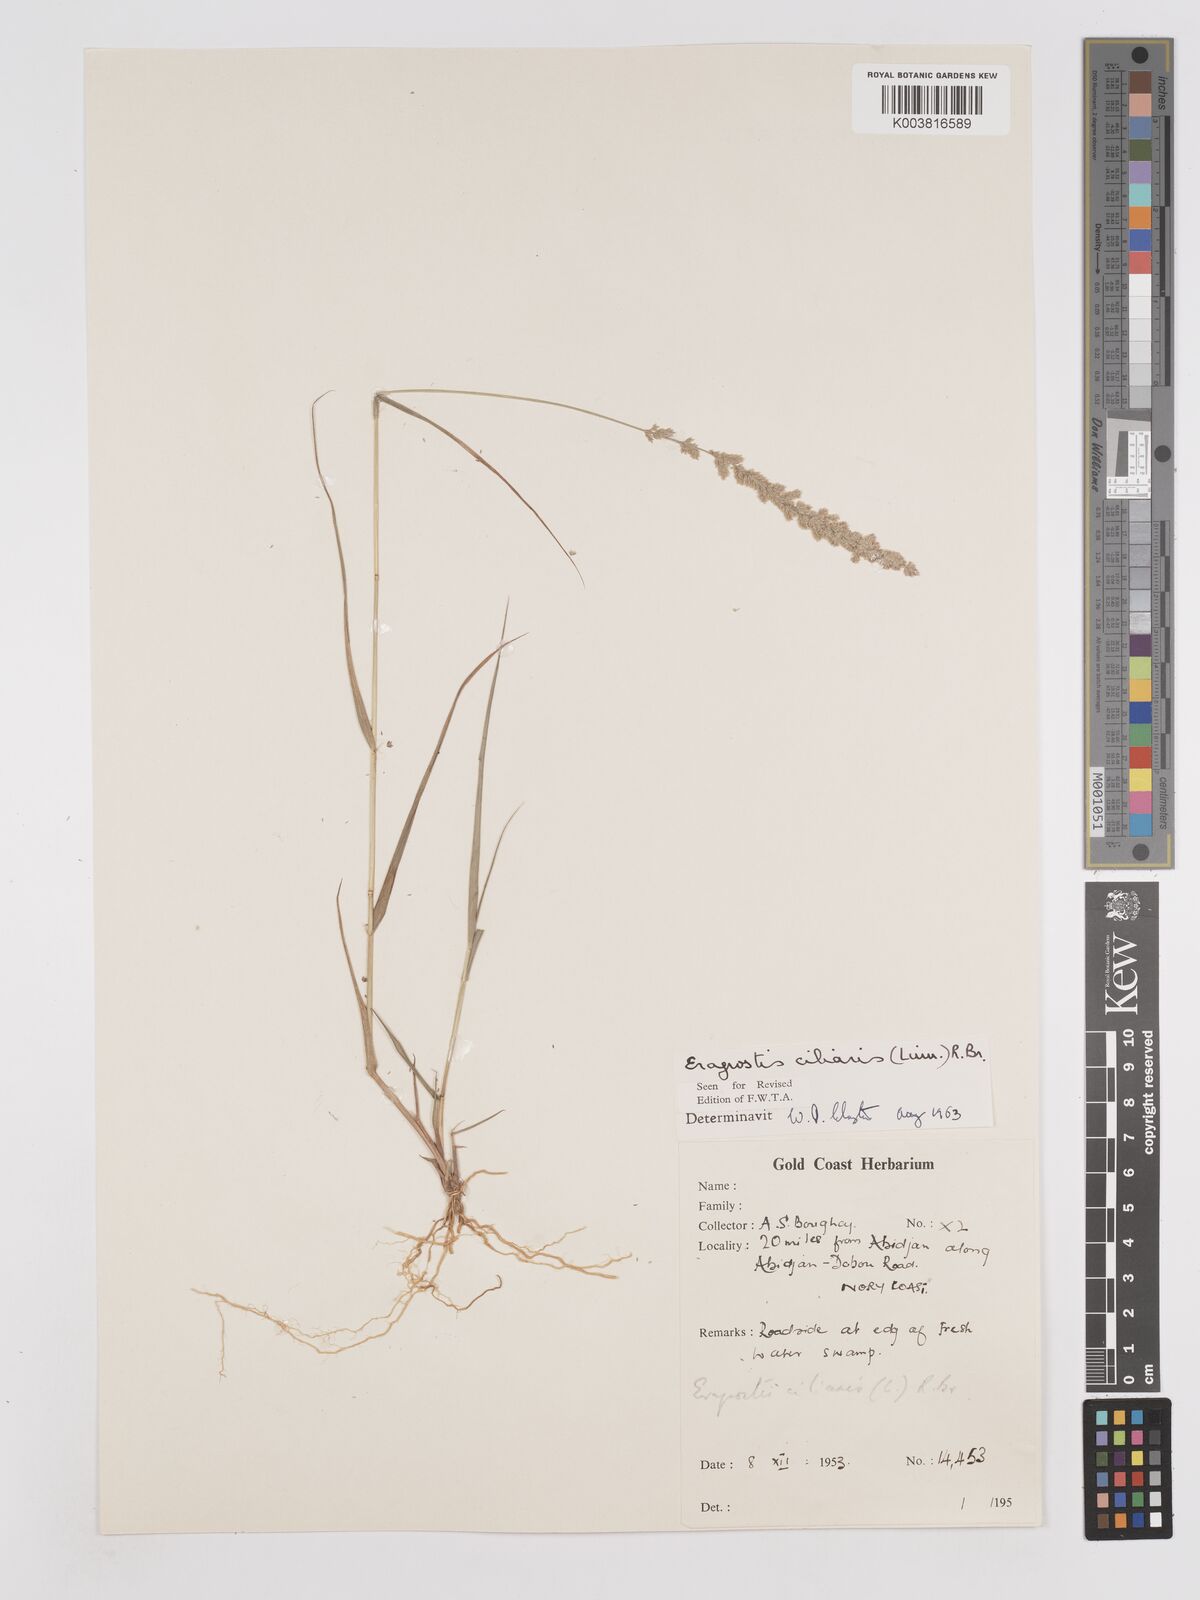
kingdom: Plantae
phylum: Tracheophyta
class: Liliopsida
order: Poales
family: Poaceae
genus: Eragrostis
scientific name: Eragrostis ciliaris
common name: Gophertail lovegrass
